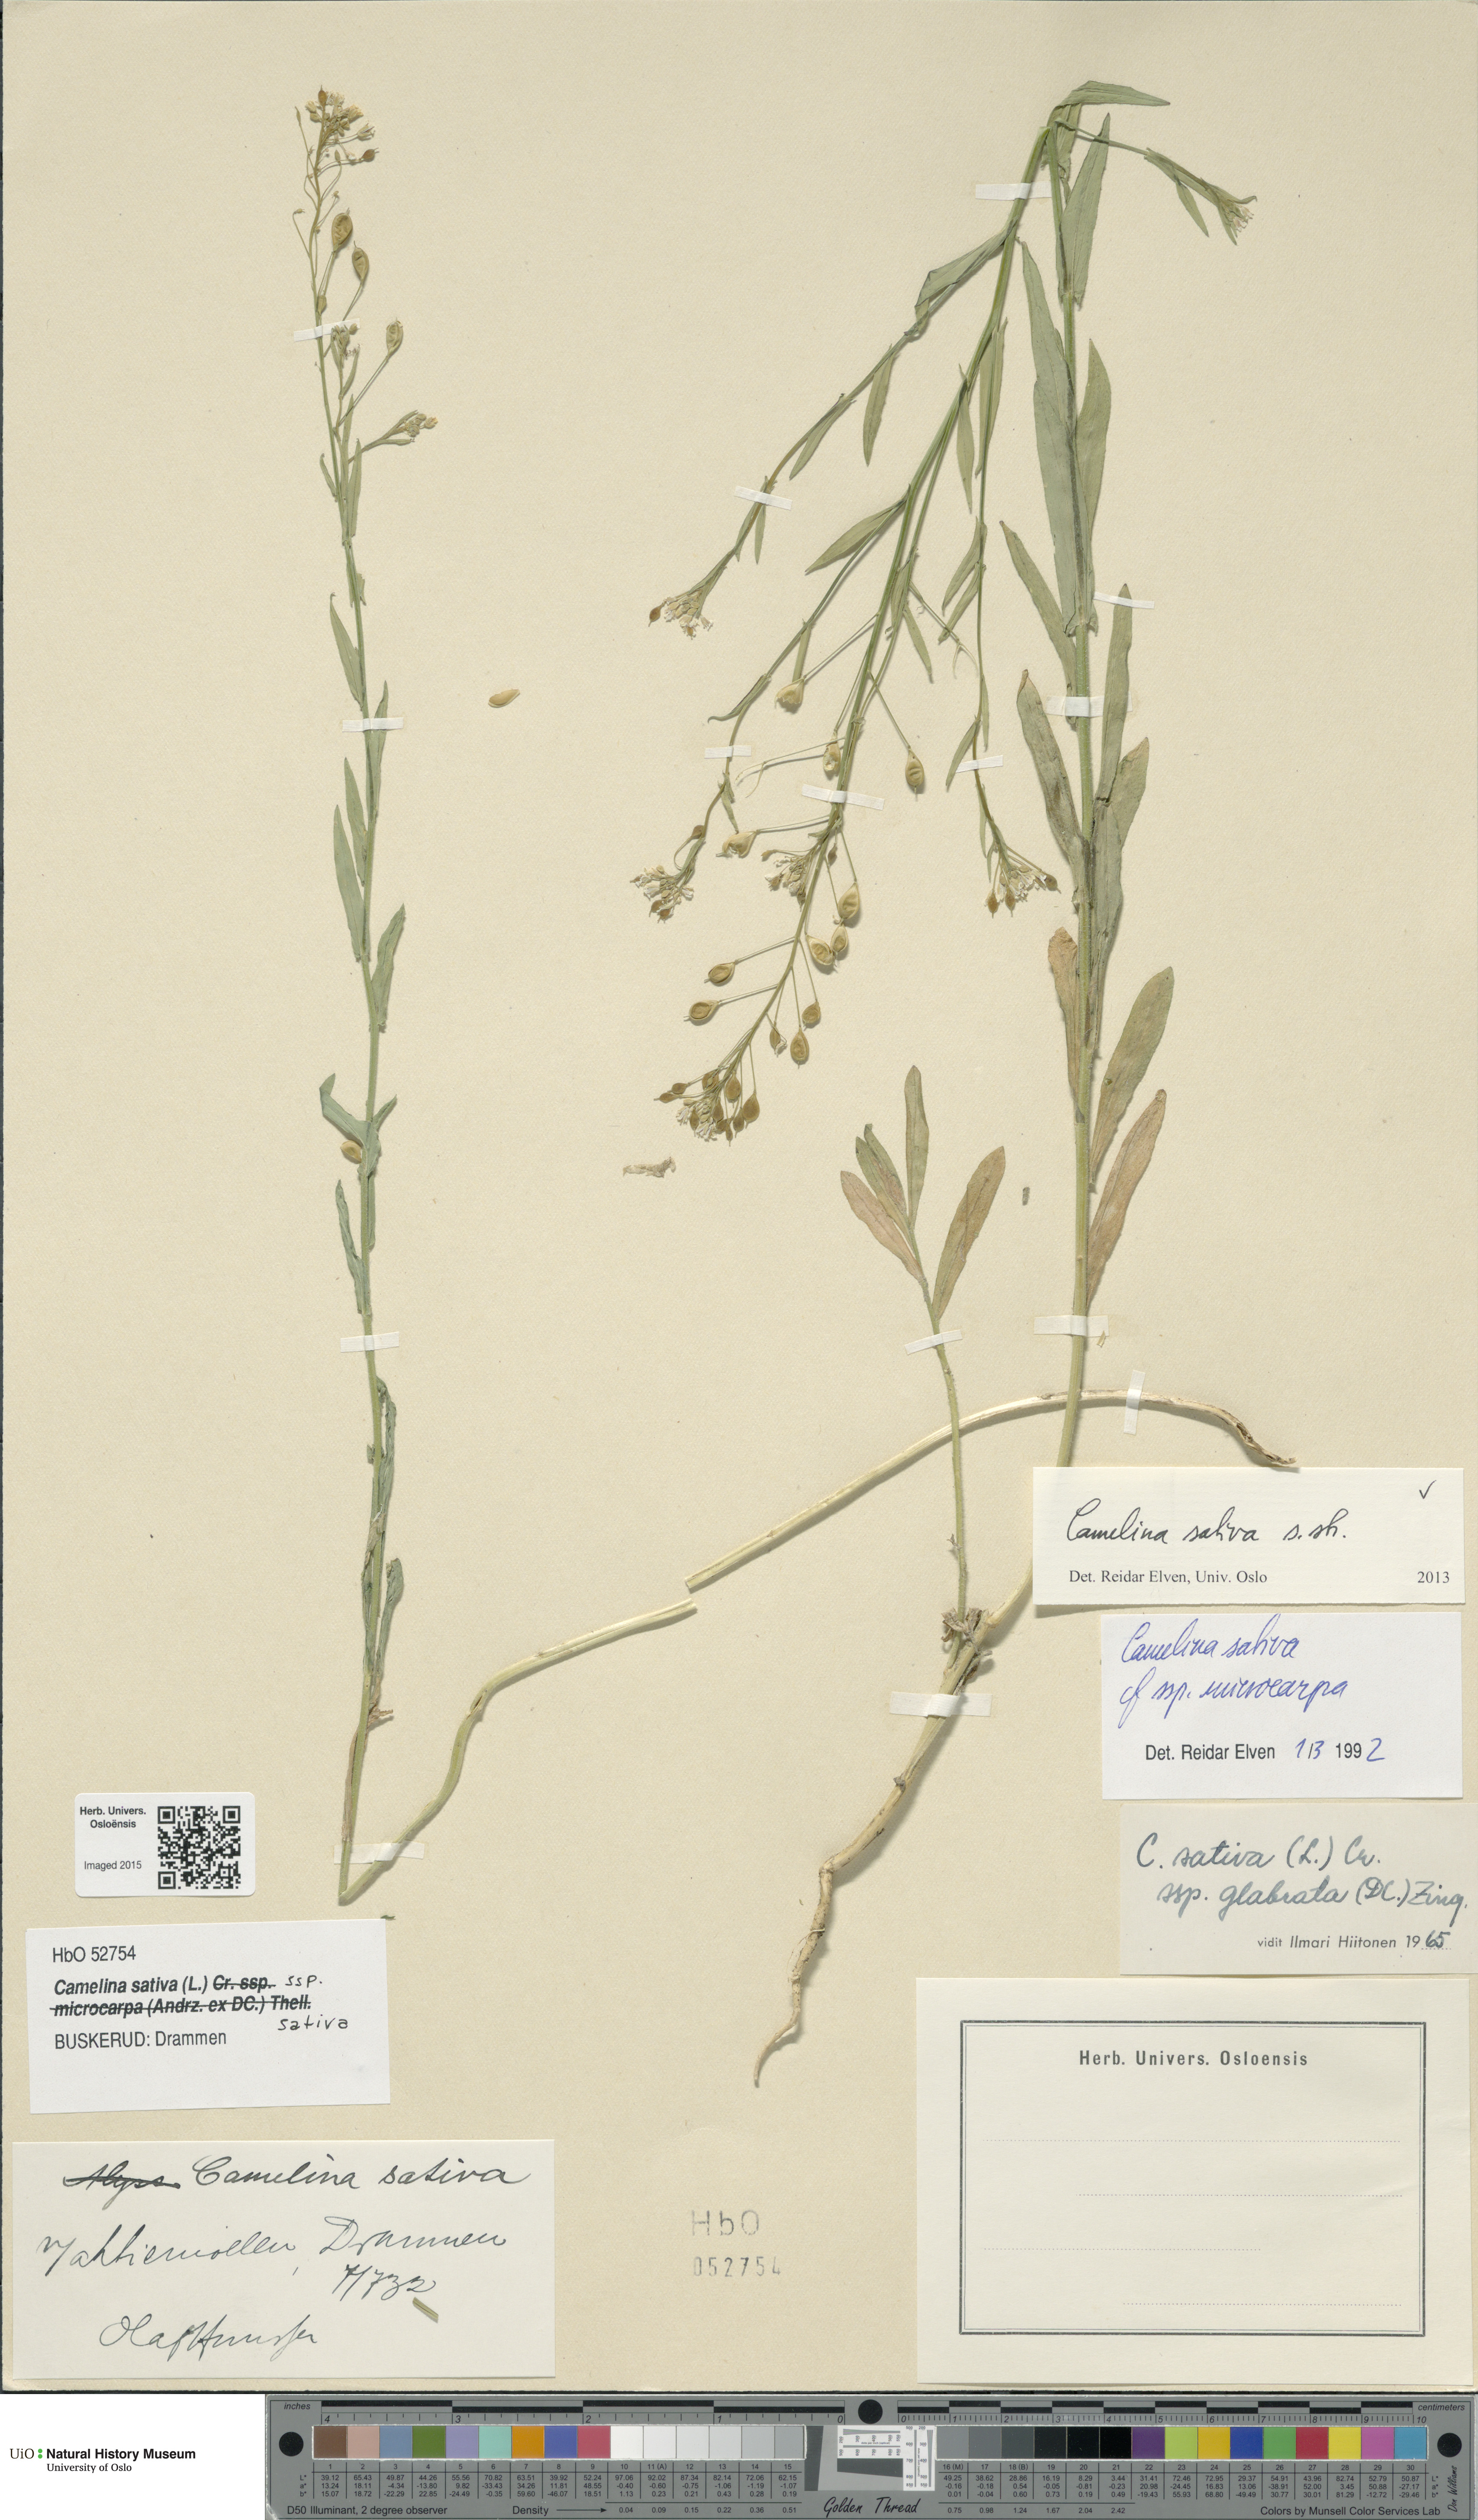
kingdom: Plantae
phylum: Tracheophyta
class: Magnoliopsida
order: Brassicales
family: Brassicaceae
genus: Camelina
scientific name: Camelina sativa
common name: Gold-of-pleasure
